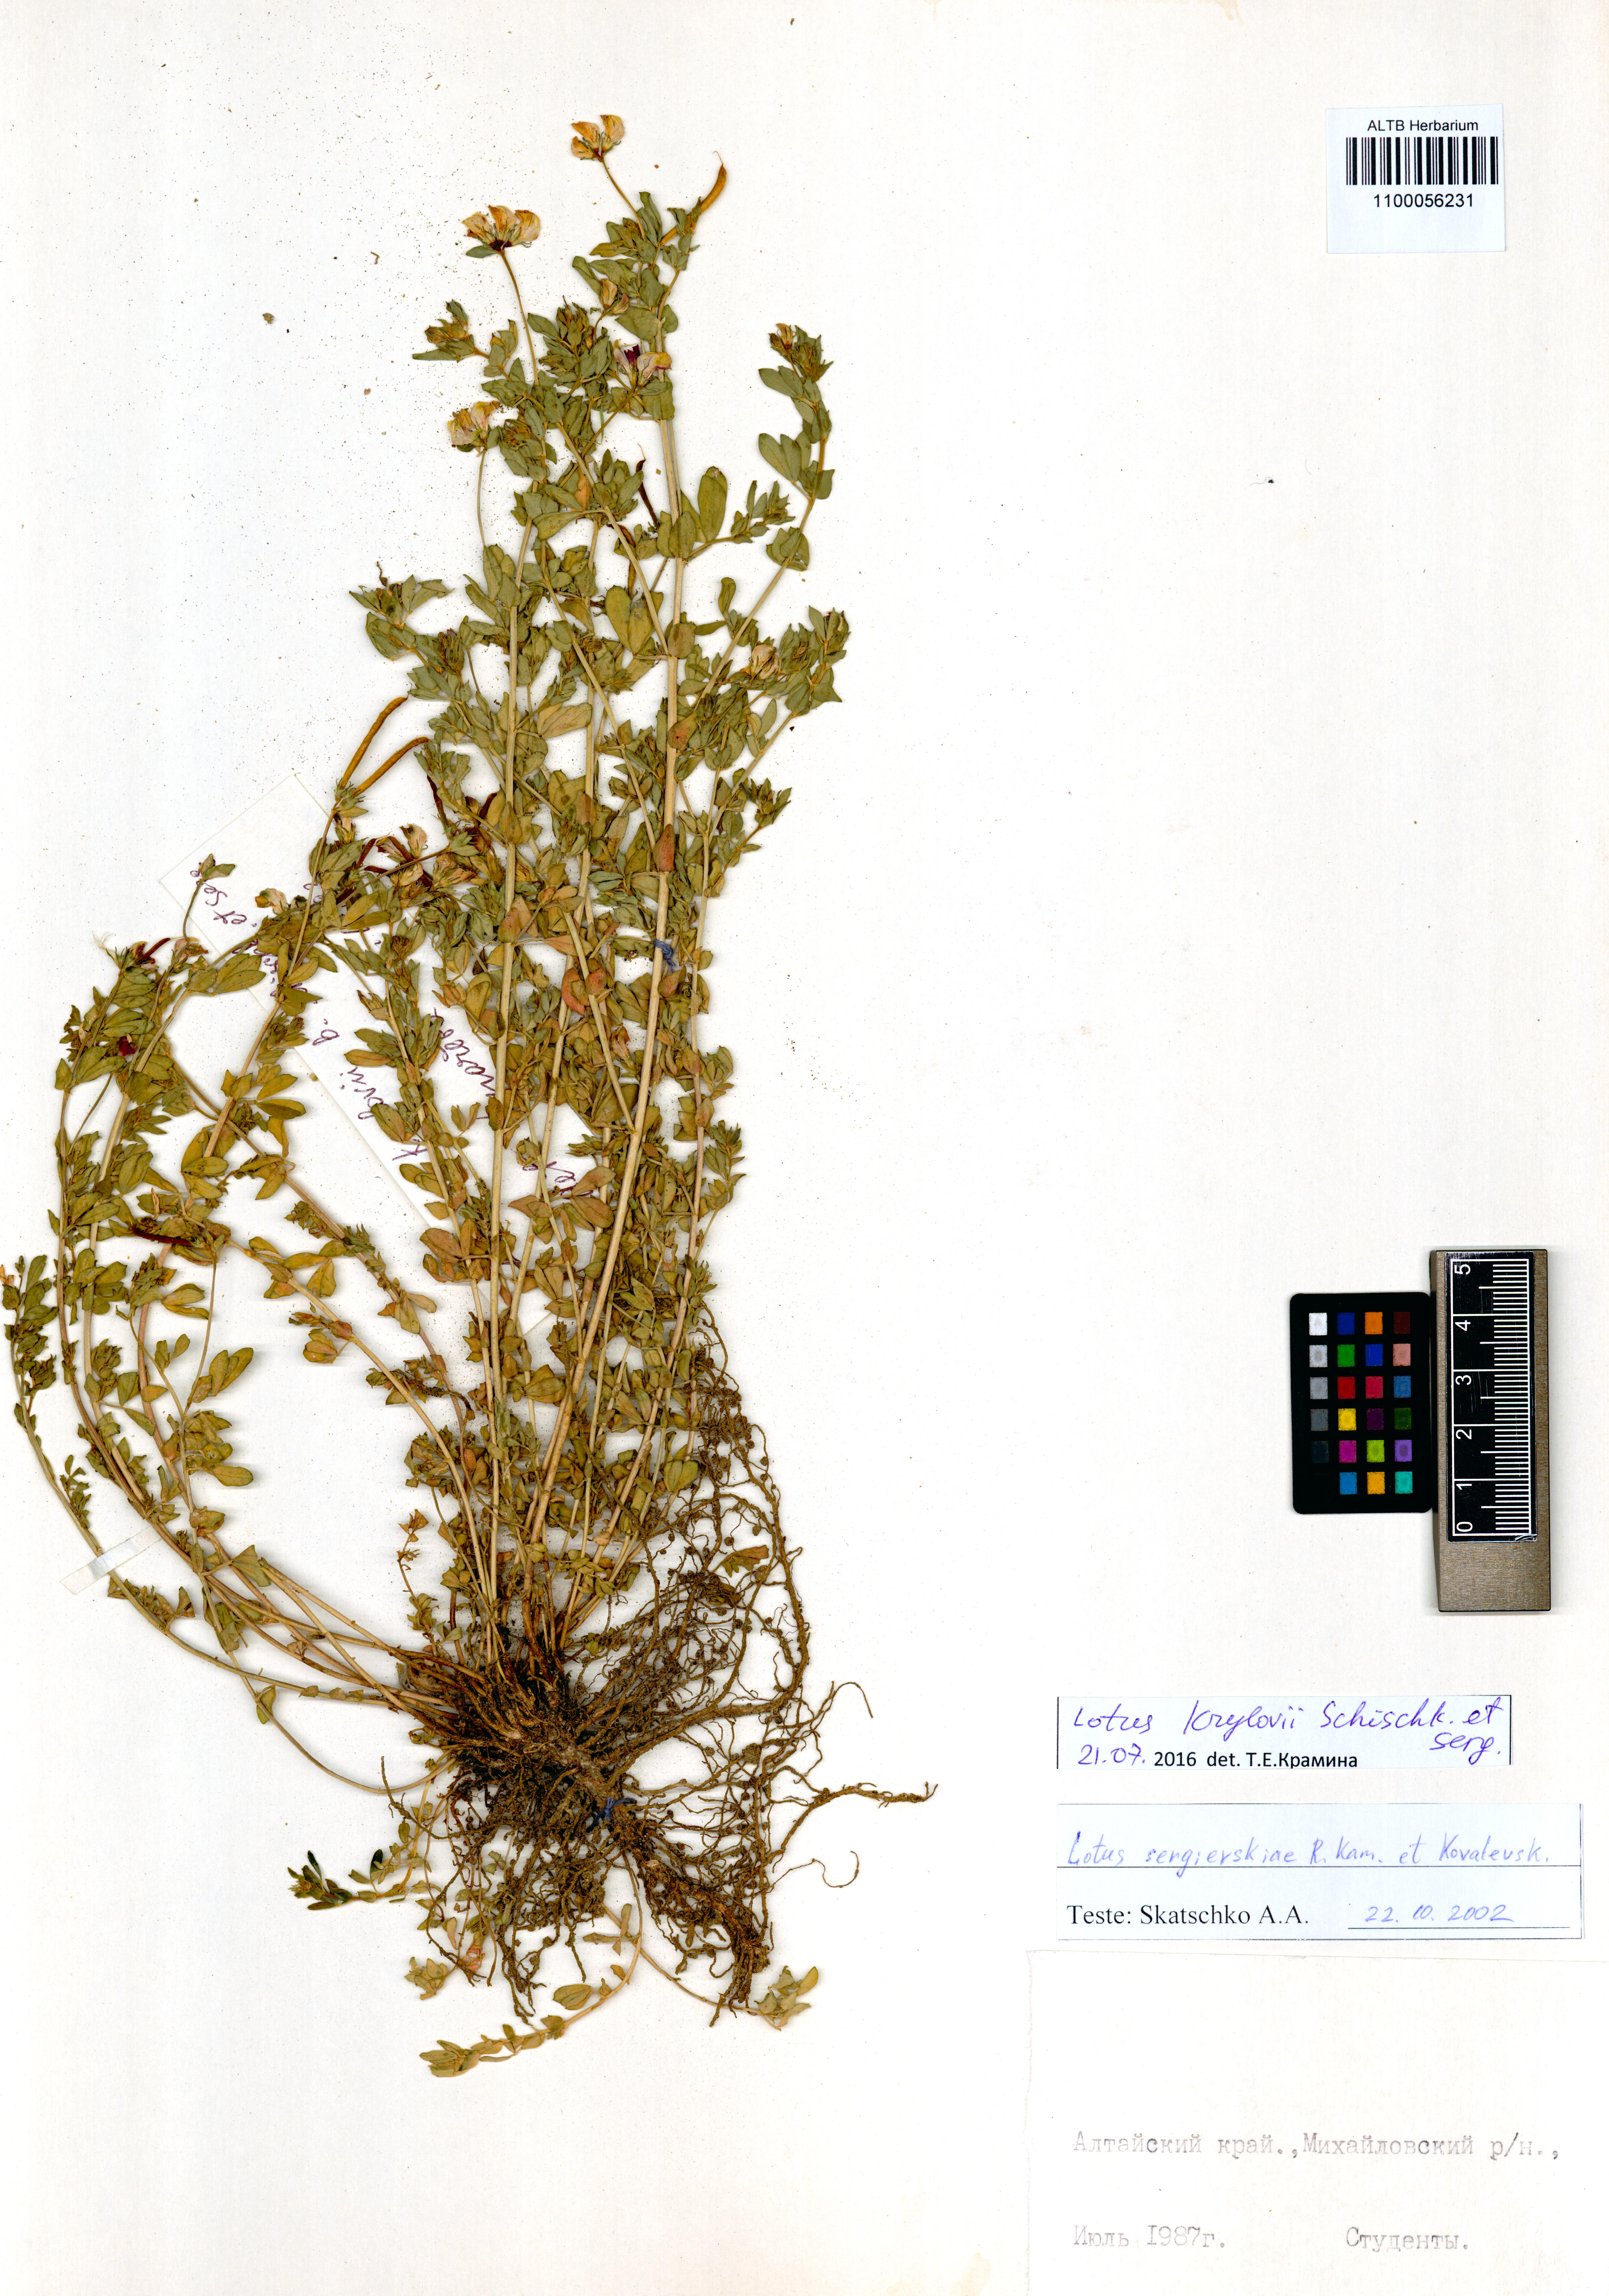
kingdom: Plantae
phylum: Tracheophyta
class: Magnoliopsida
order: Fabales
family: Fabaceae
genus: Lotus
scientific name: Lotus krylovii
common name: Krylov's bird's-foot trefoil
